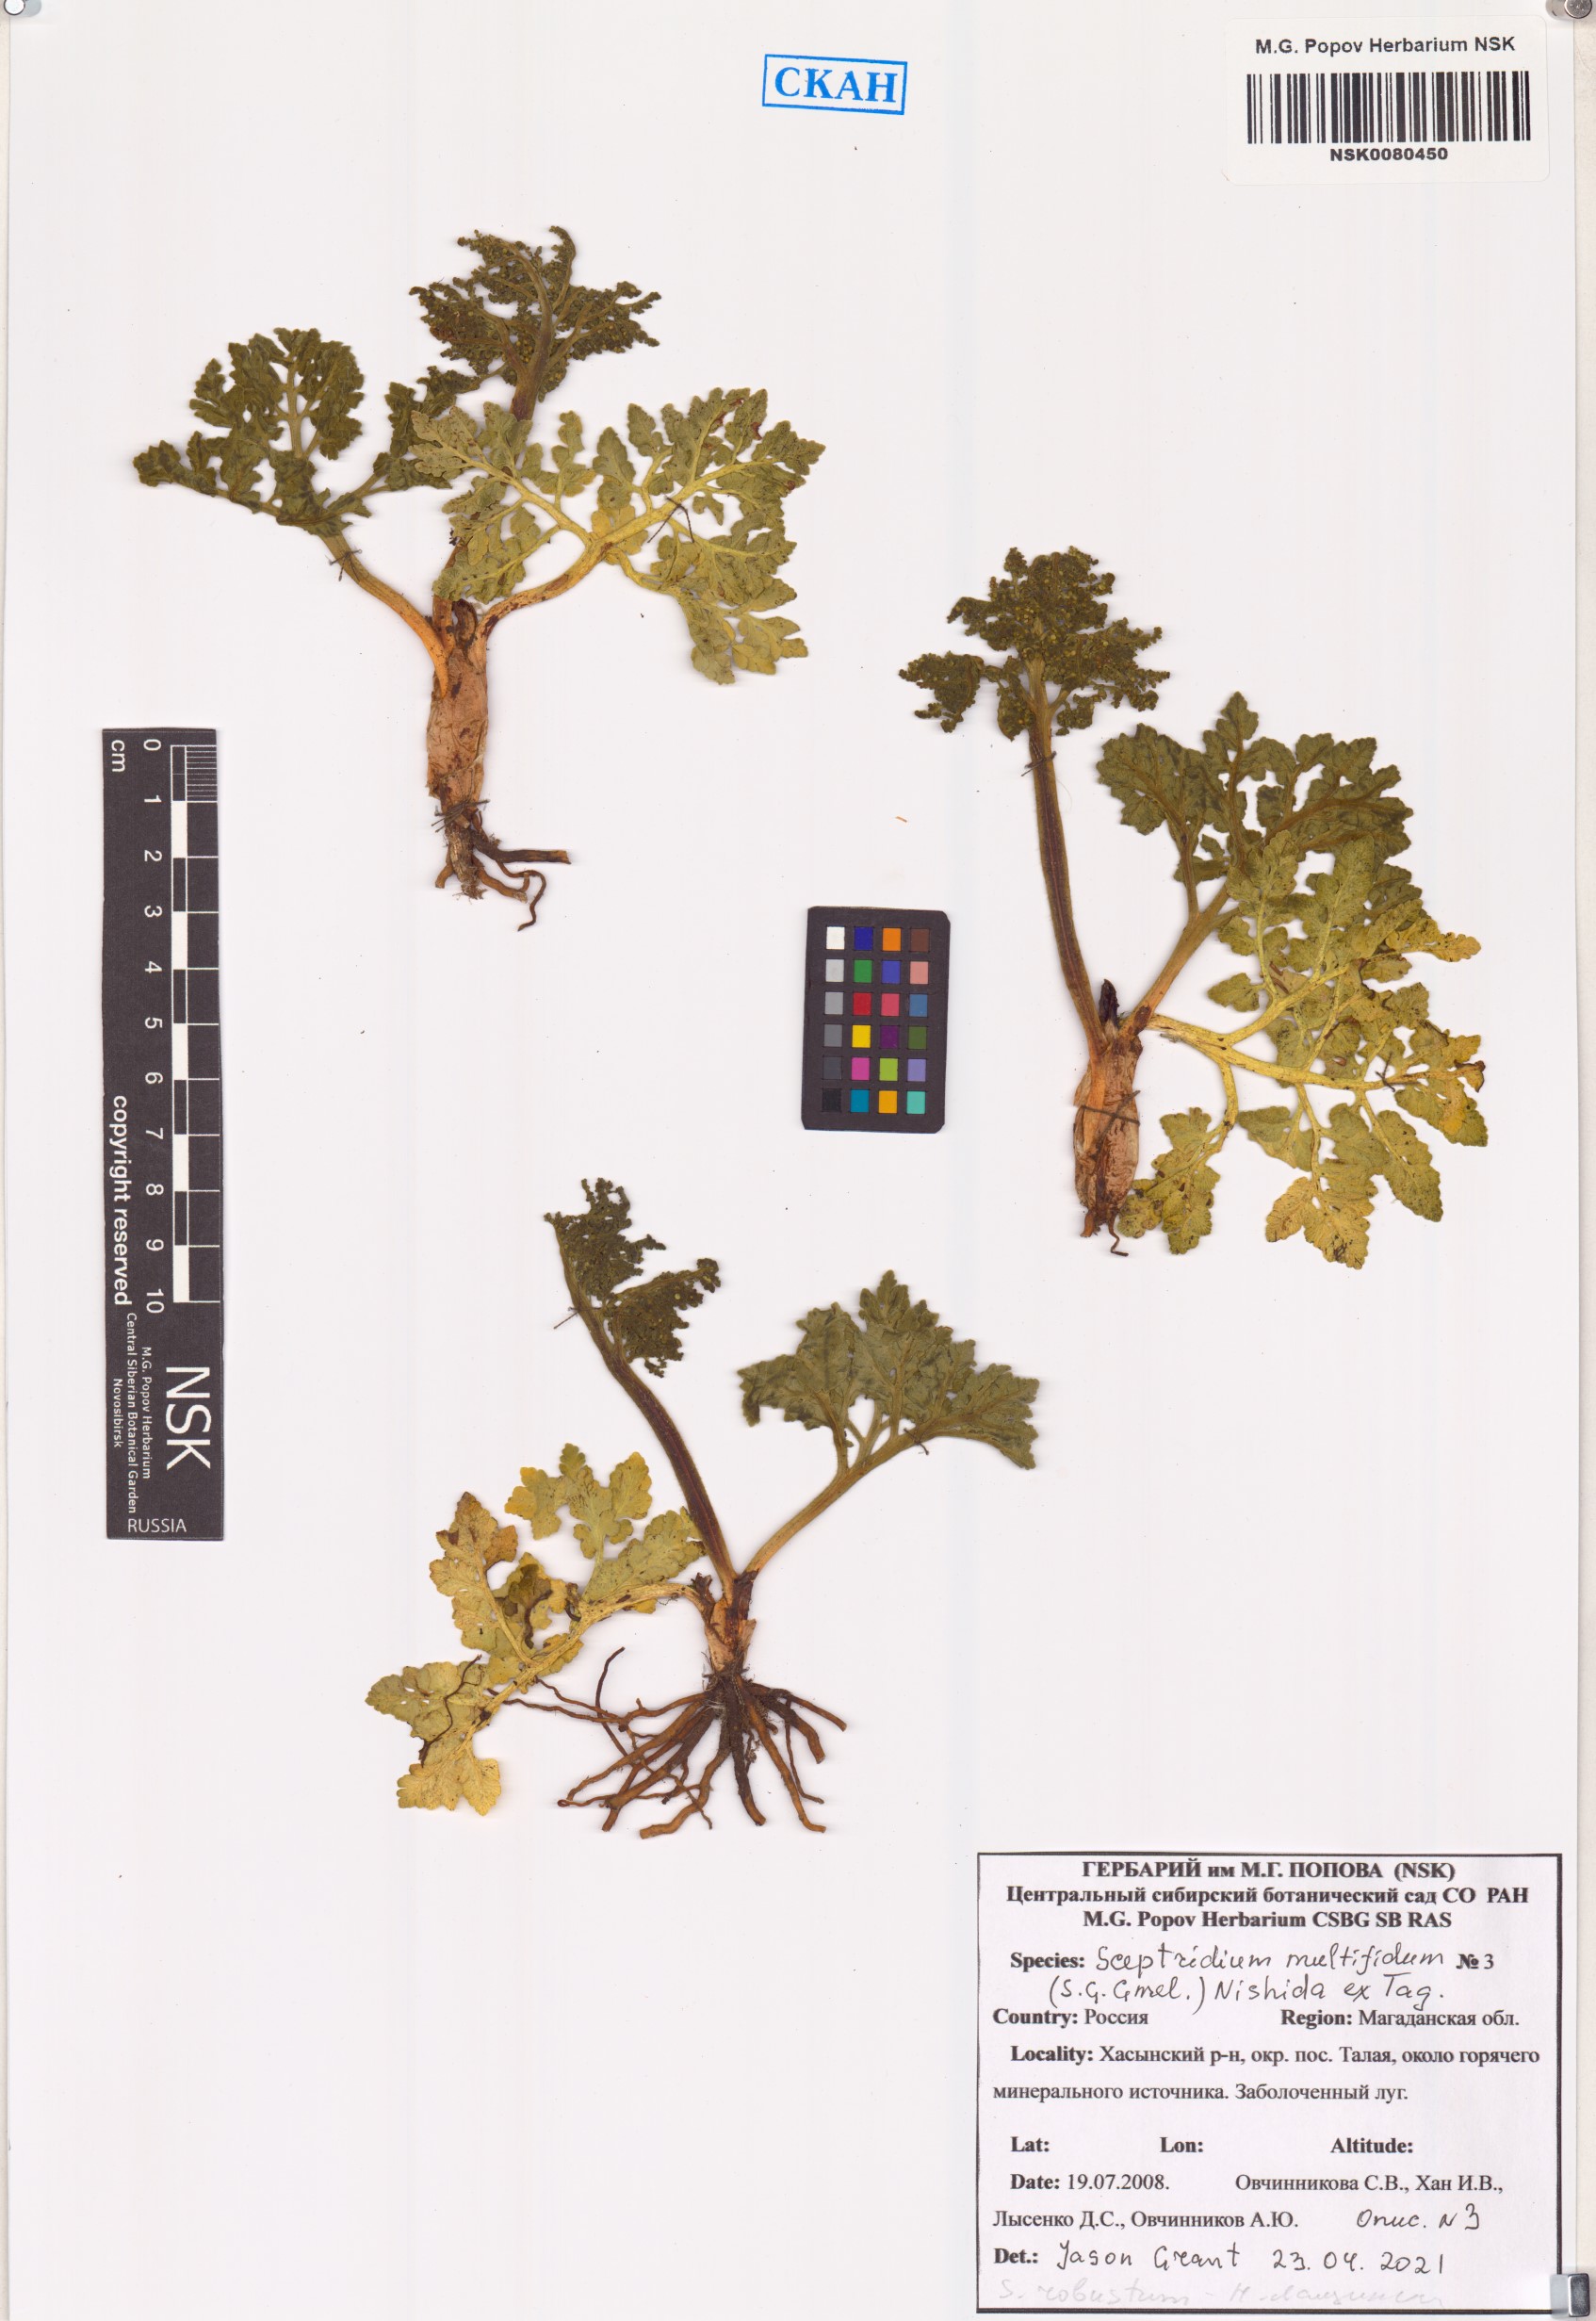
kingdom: Plantae
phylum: Tracheophyta
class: Polypodiopsida
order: Ophioglossales
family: Ophioglossaceae
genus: Sceptridium
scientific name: Sceptridium multifidum
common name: Leathery grape fern
